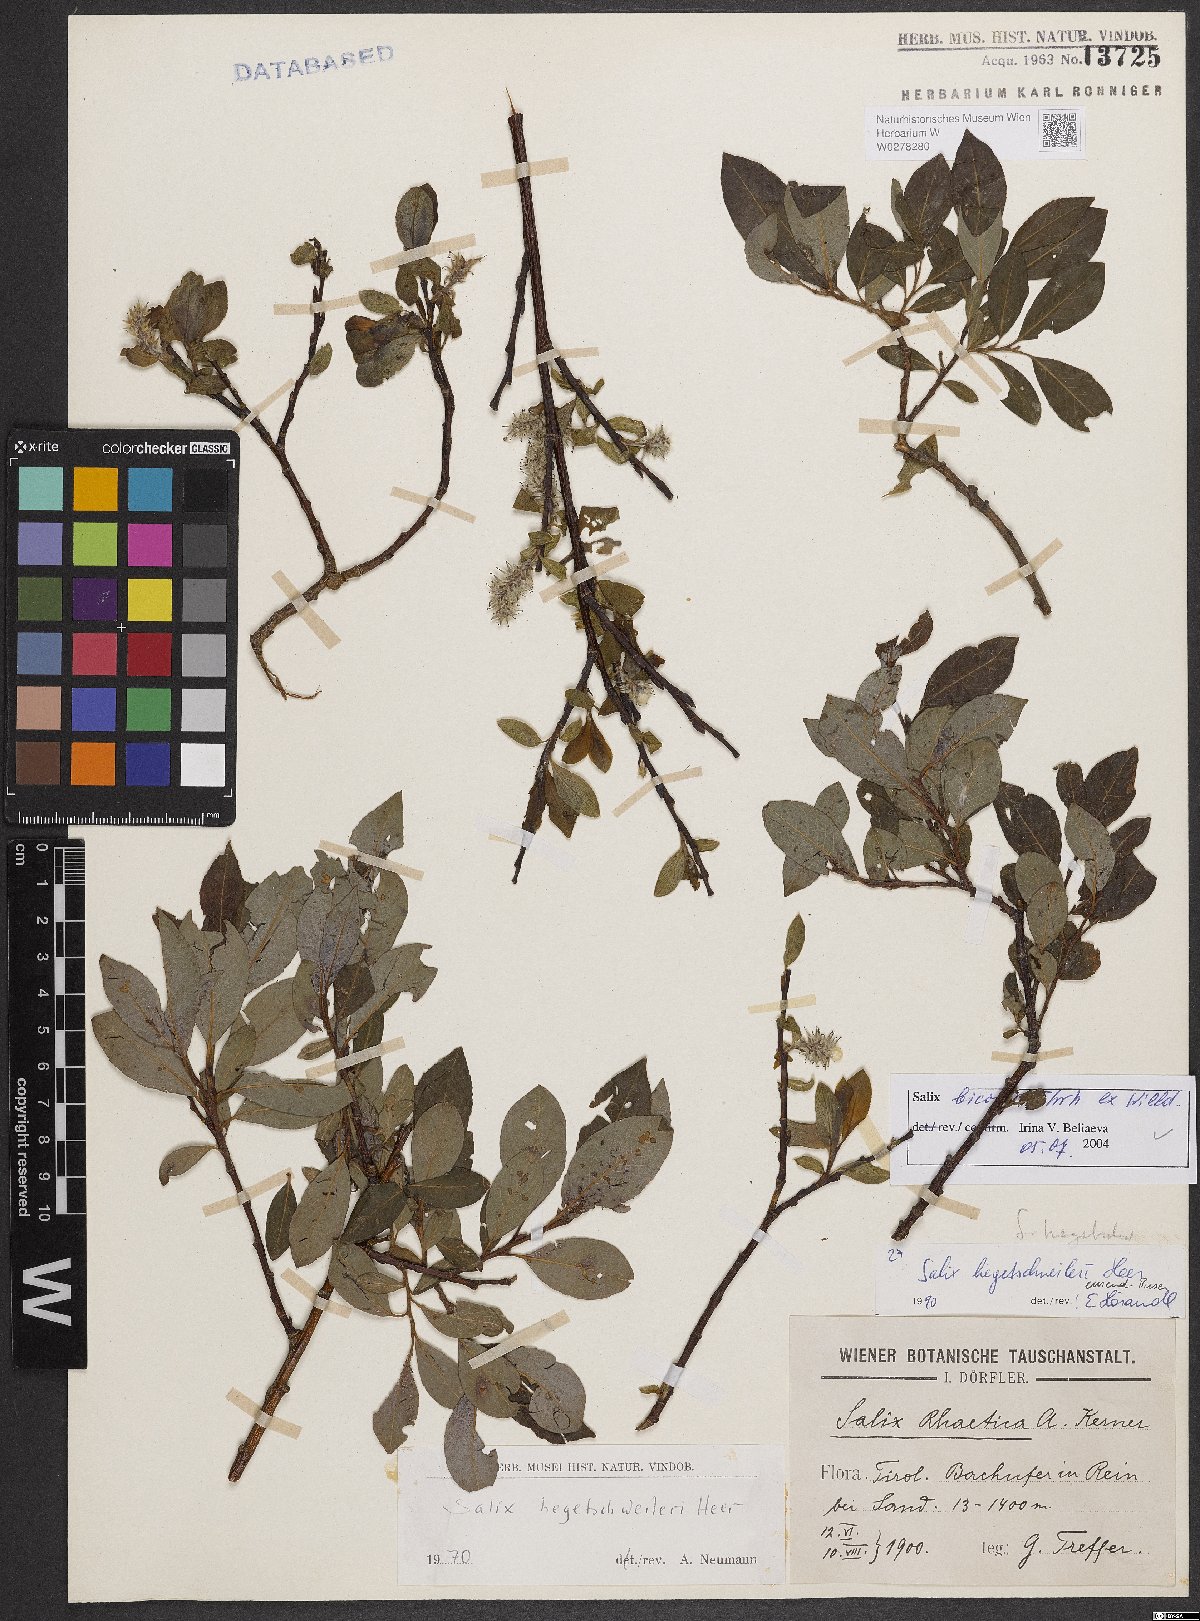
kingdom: Plantae
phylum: Tracheophyta
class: Magnoliopsida
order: Malpighiales
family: Salicaceae
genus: Salix
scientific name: Salix bicolor
